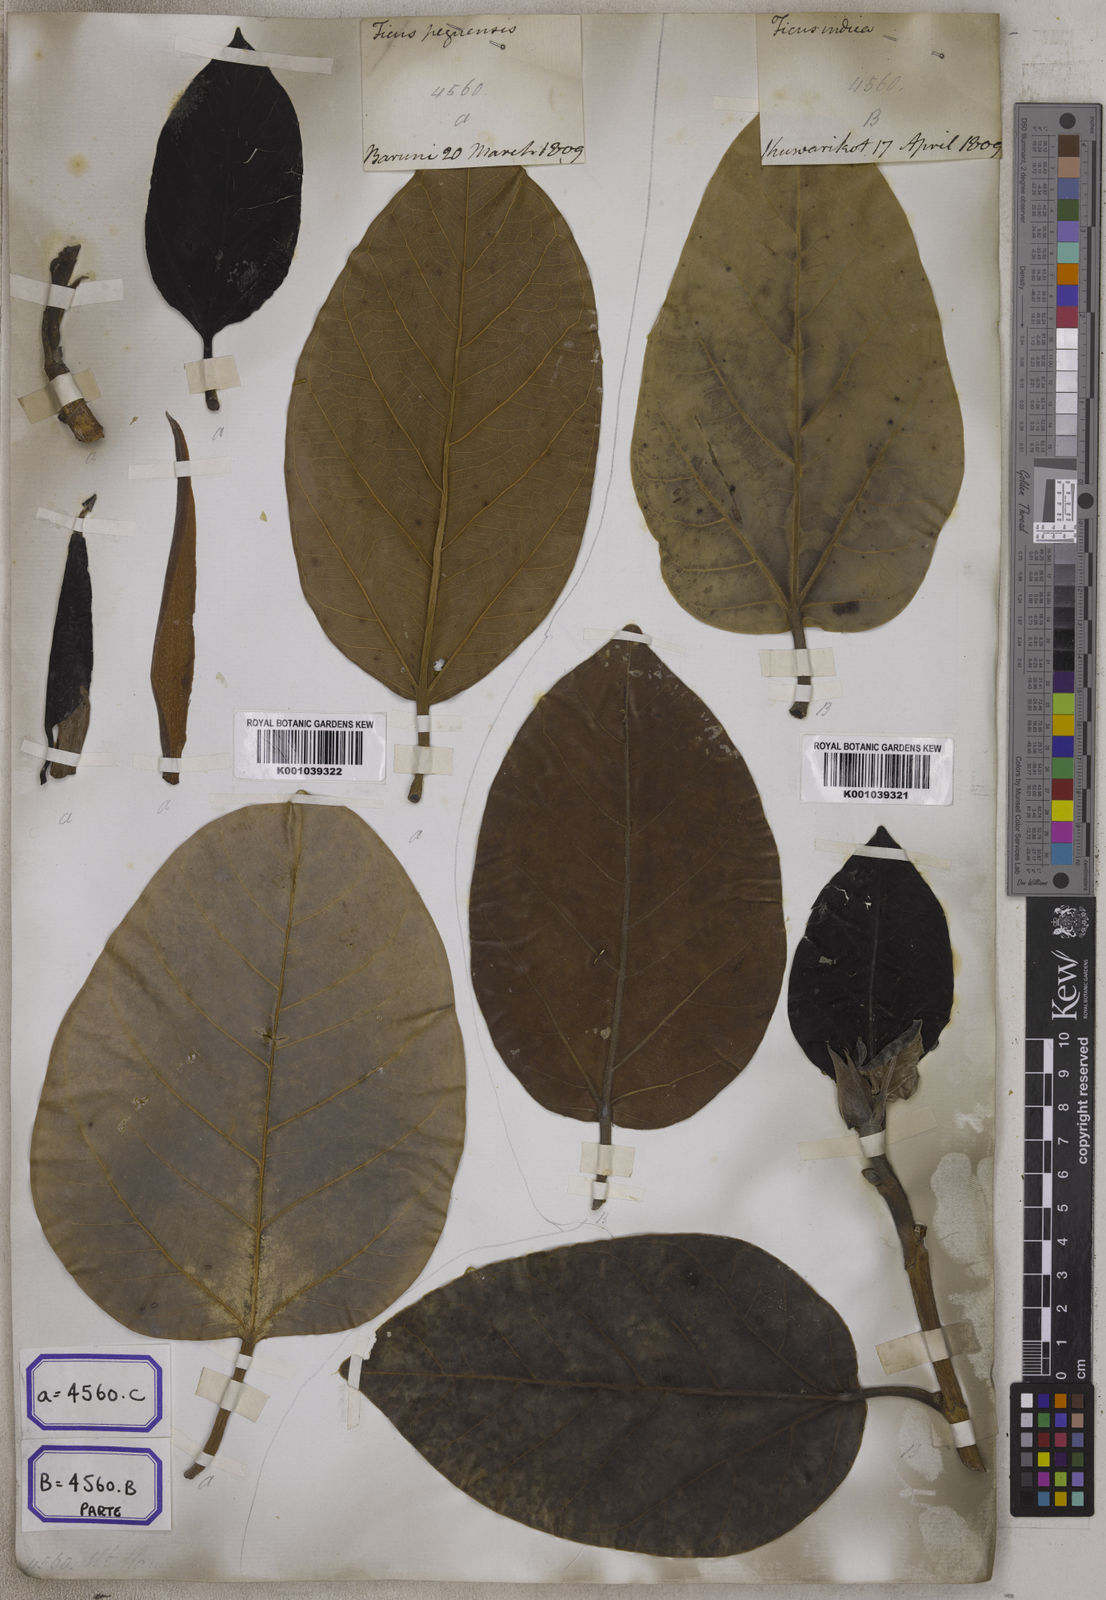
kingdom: Plantae
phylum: Tracheophyta
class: Magnoliopsida
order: Rosales
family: Moraceae
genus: Ficus
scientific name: Ficus
